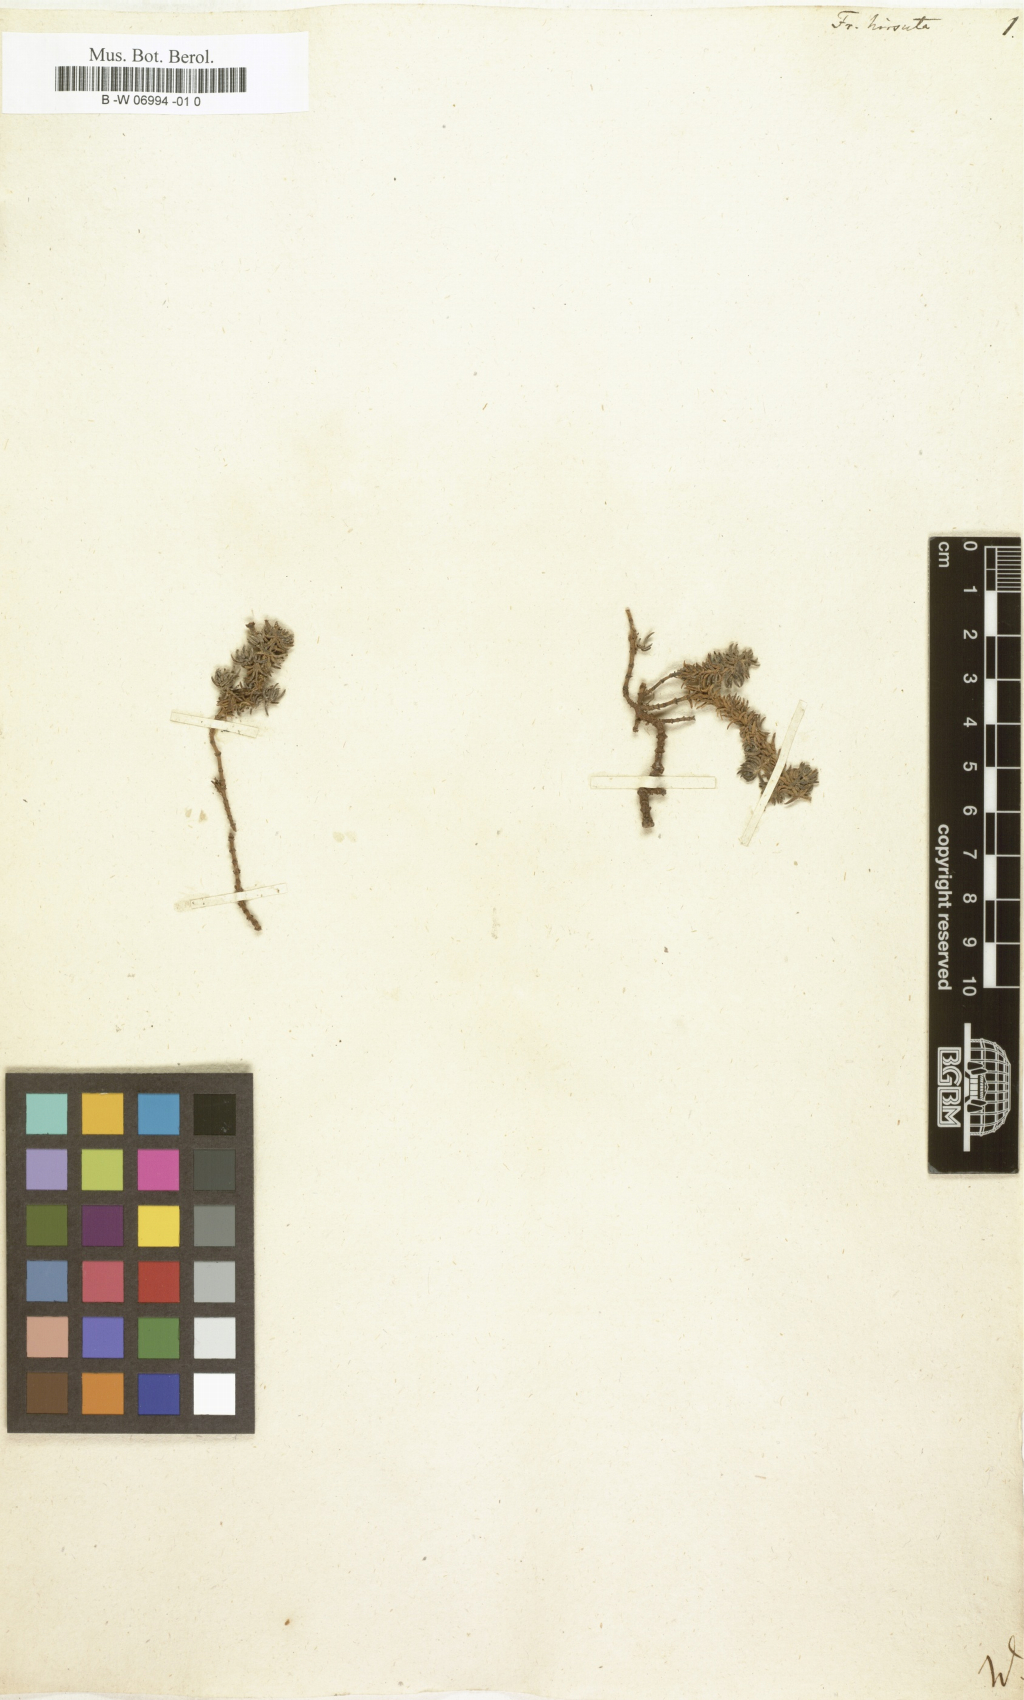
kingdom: Plantae
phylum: Tracheophyta
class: Magnoliopsida
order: Caryophyllales
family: Frankeniaceae
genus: Frankenia
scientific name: Frankenia hirsuta
